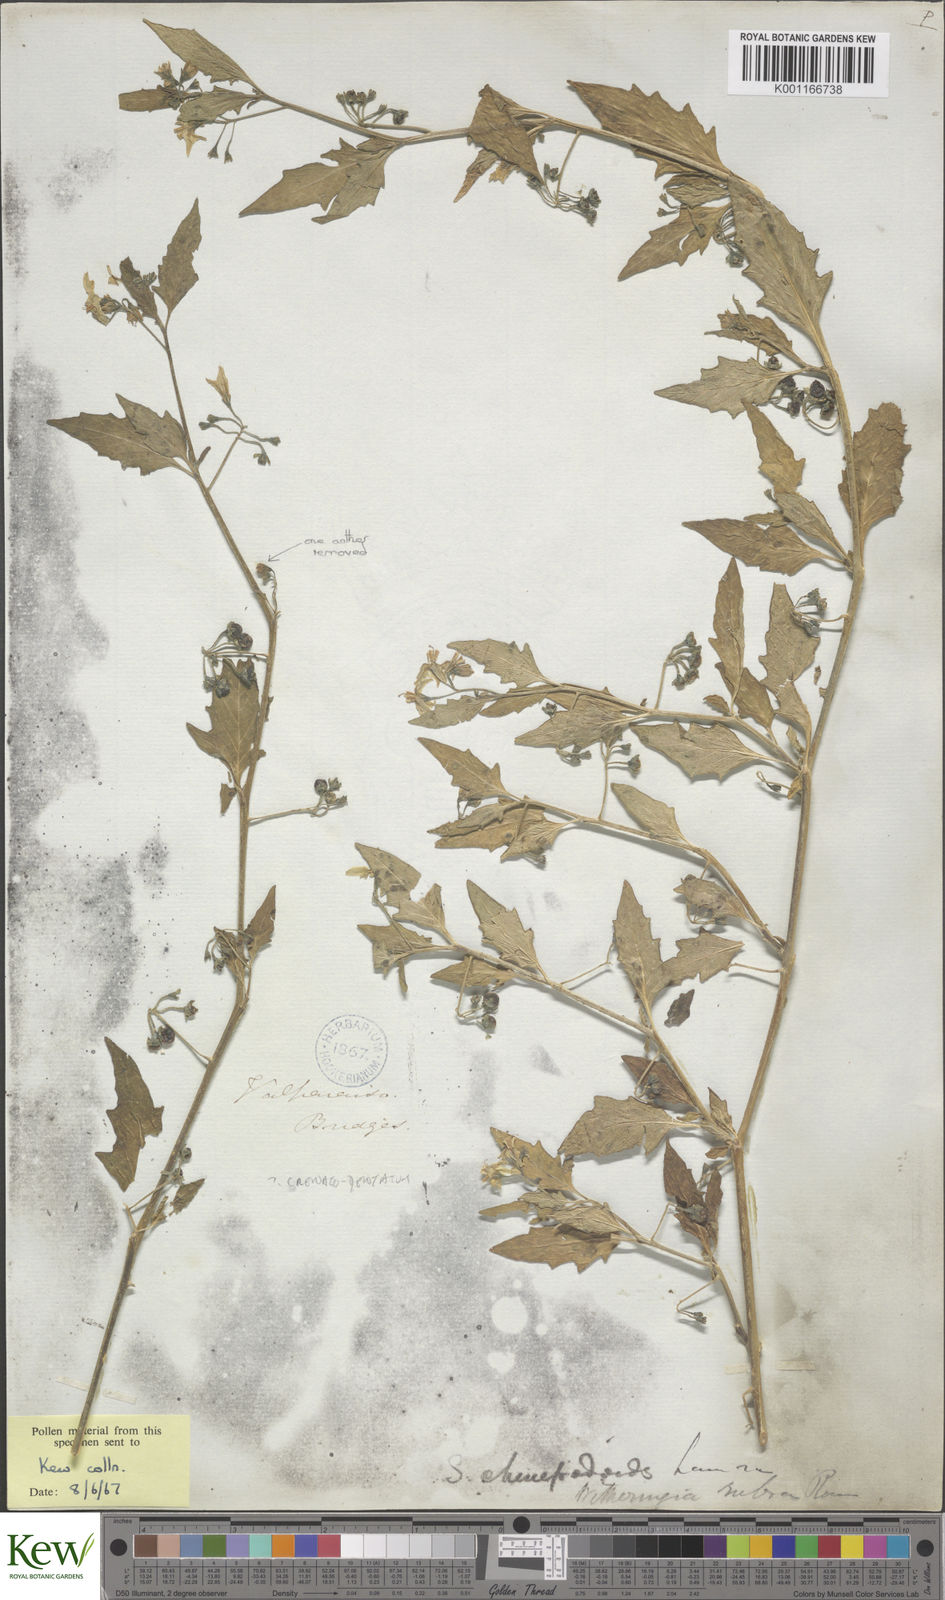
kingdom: Plantae
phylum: Tracheophyta
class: Magnoliopsida
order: Solanales
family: Solanaceae
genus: Solanum
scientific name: Solanum
